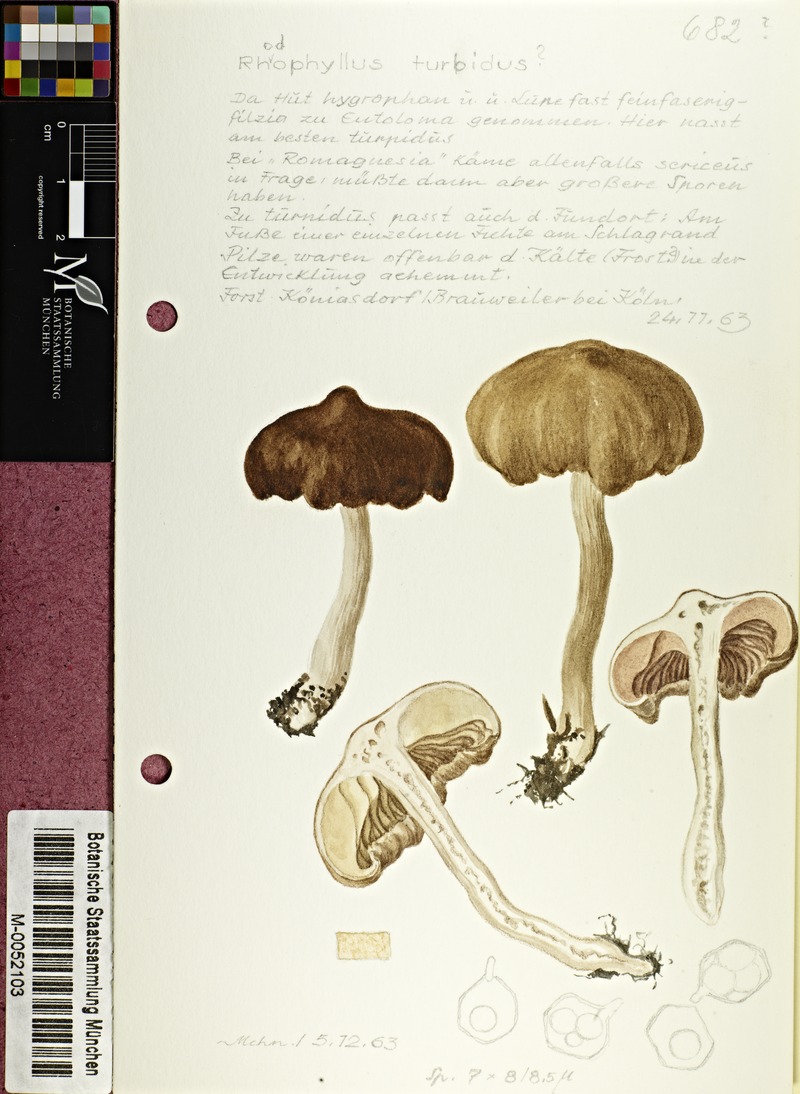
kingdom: Fungi
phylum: Basidiomycota
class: Agaricomycetes
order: Agaricales
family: Entolomataceae
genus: Entocybe
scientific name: Entocybe turbida
